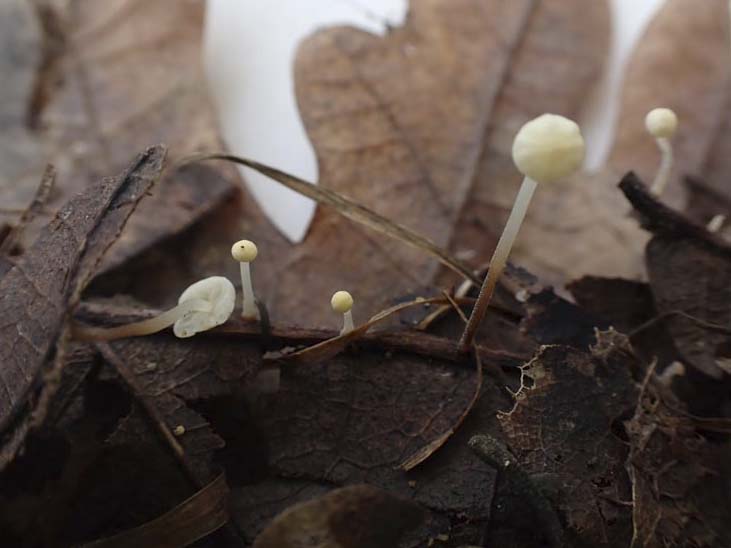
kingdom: Fungi
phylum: Basidiomycota
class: Agaricomycetes
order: Agaricales
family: Marasmiaceae
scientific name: Marasmiaceae
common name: bruskhatfamilien
